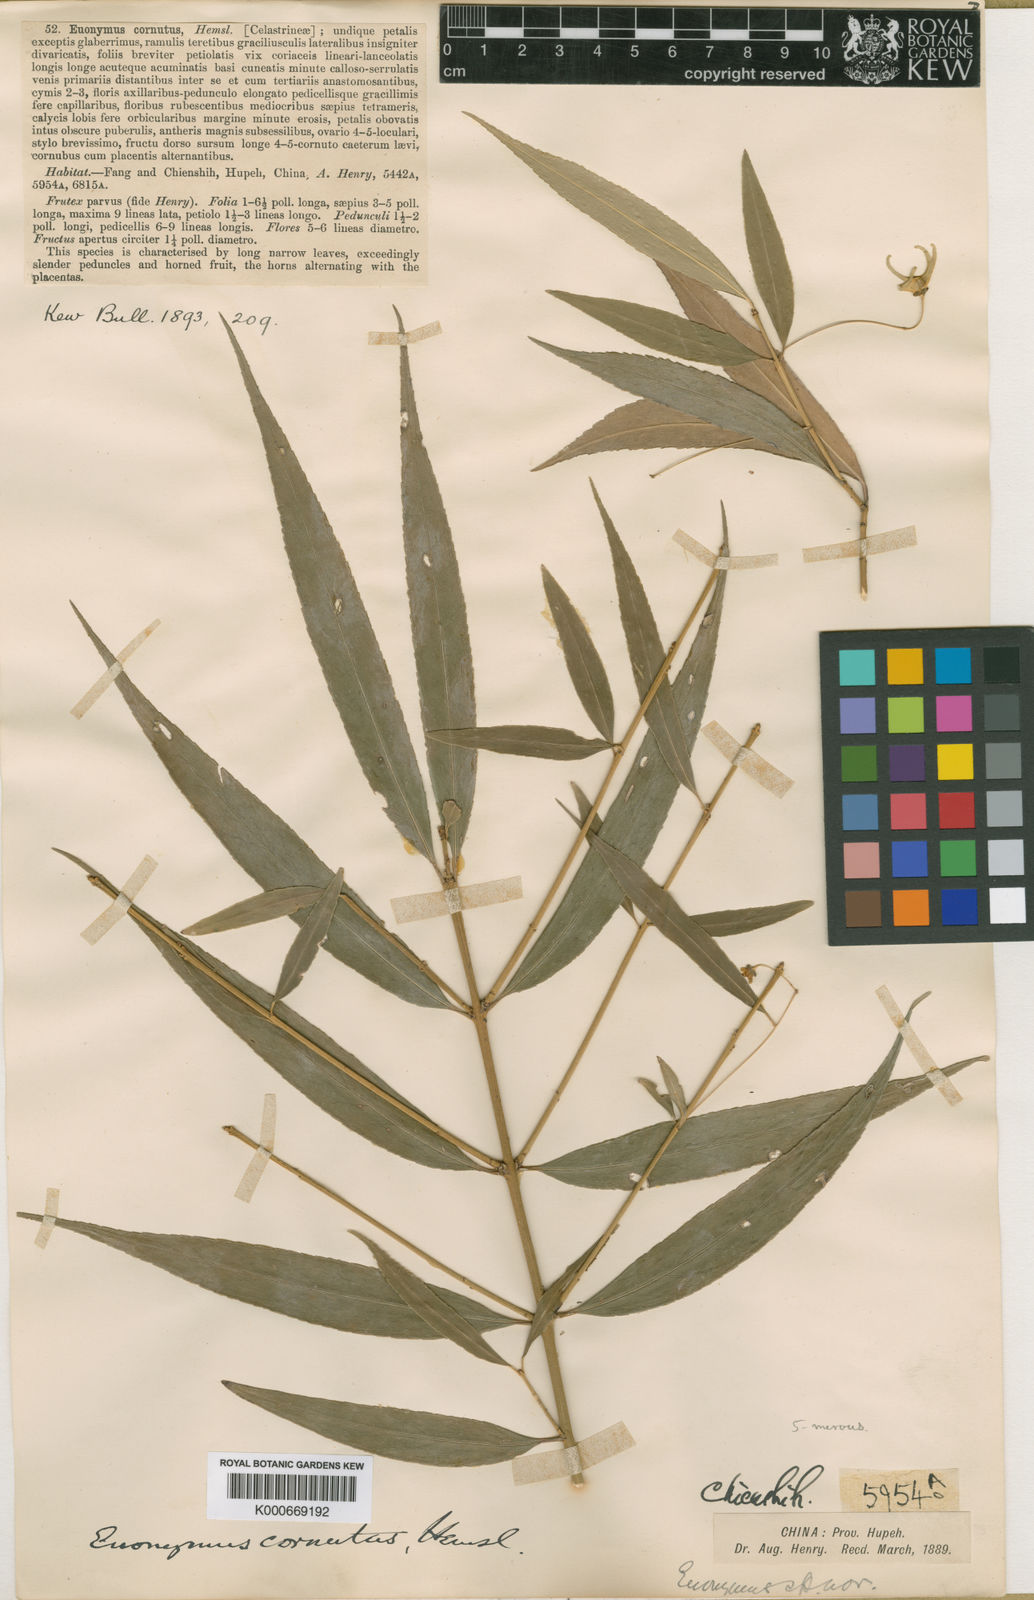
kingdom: Plantae
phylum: Tracheophyta
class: Magnoliopsida
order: Celastrales
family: Celastraceae
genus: Euonymus
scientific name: Euonymus cornutus
